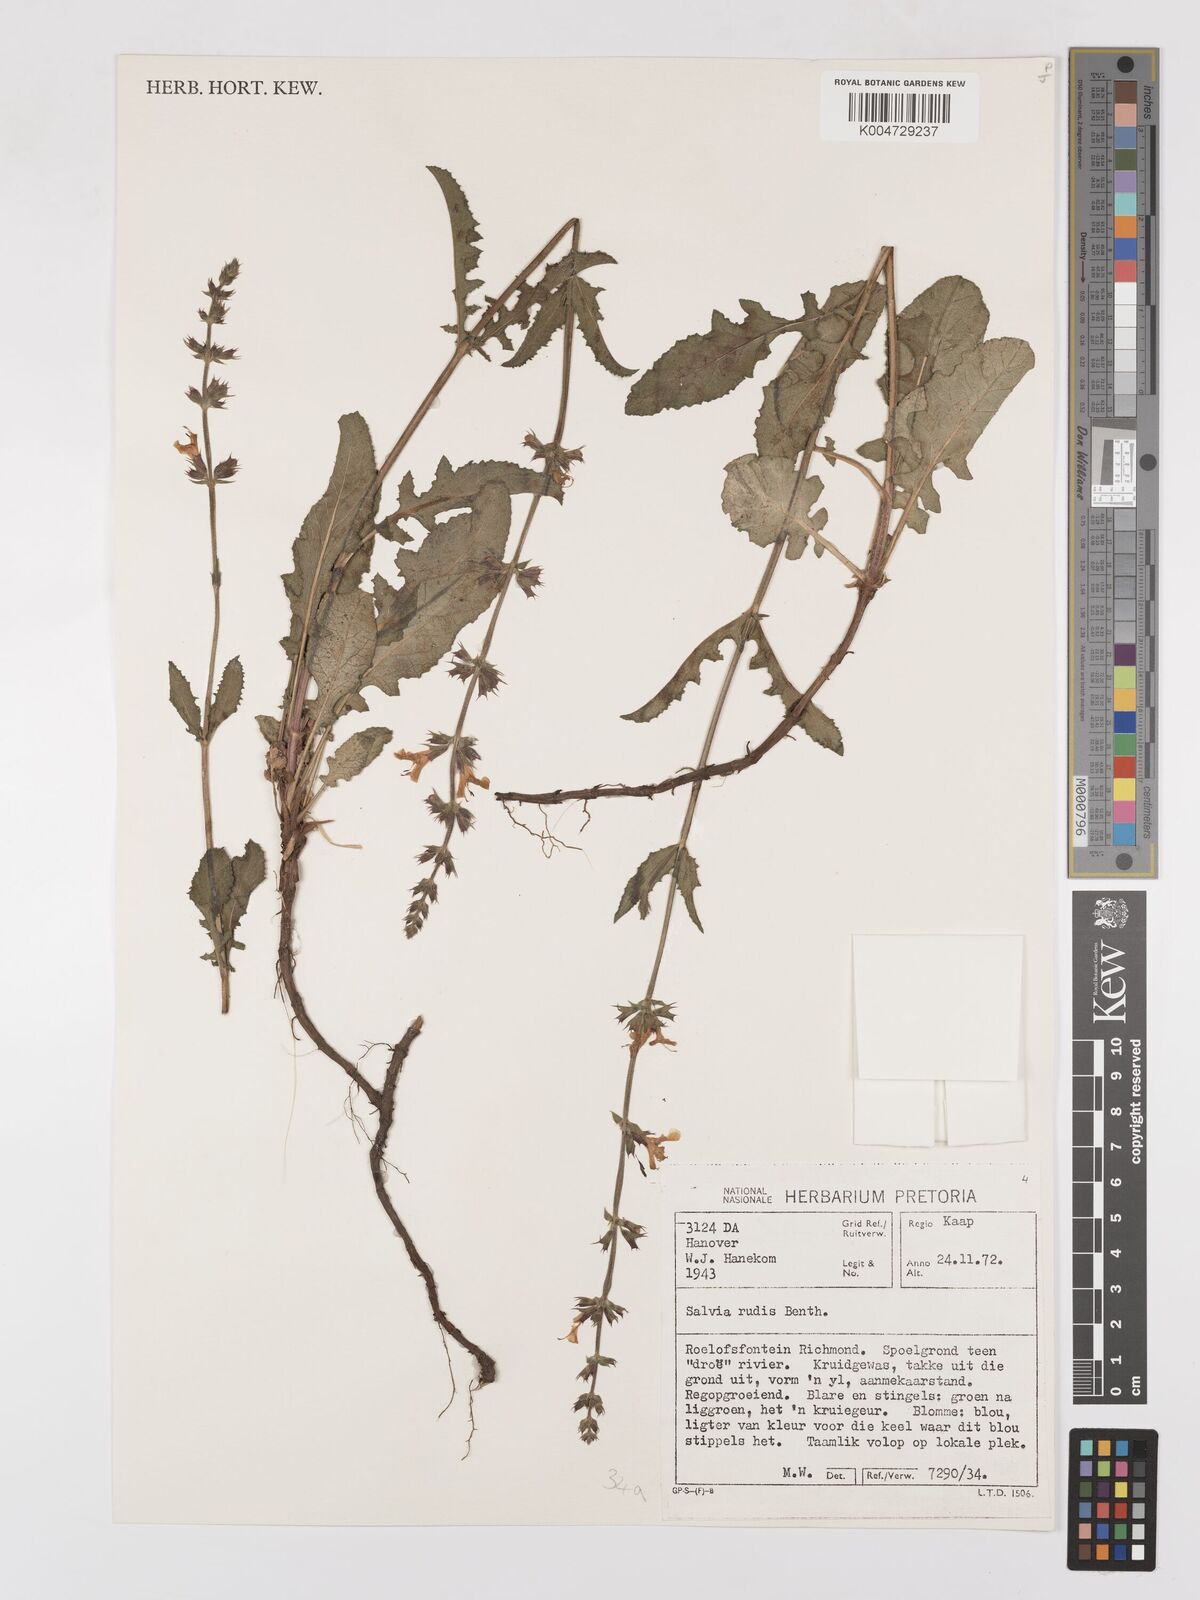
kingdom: Plantae
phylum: Tracheophyta
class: Magnoliopsida
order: Lamiales
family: Lamiaceae
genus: Salvia
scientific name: Salvia repens
